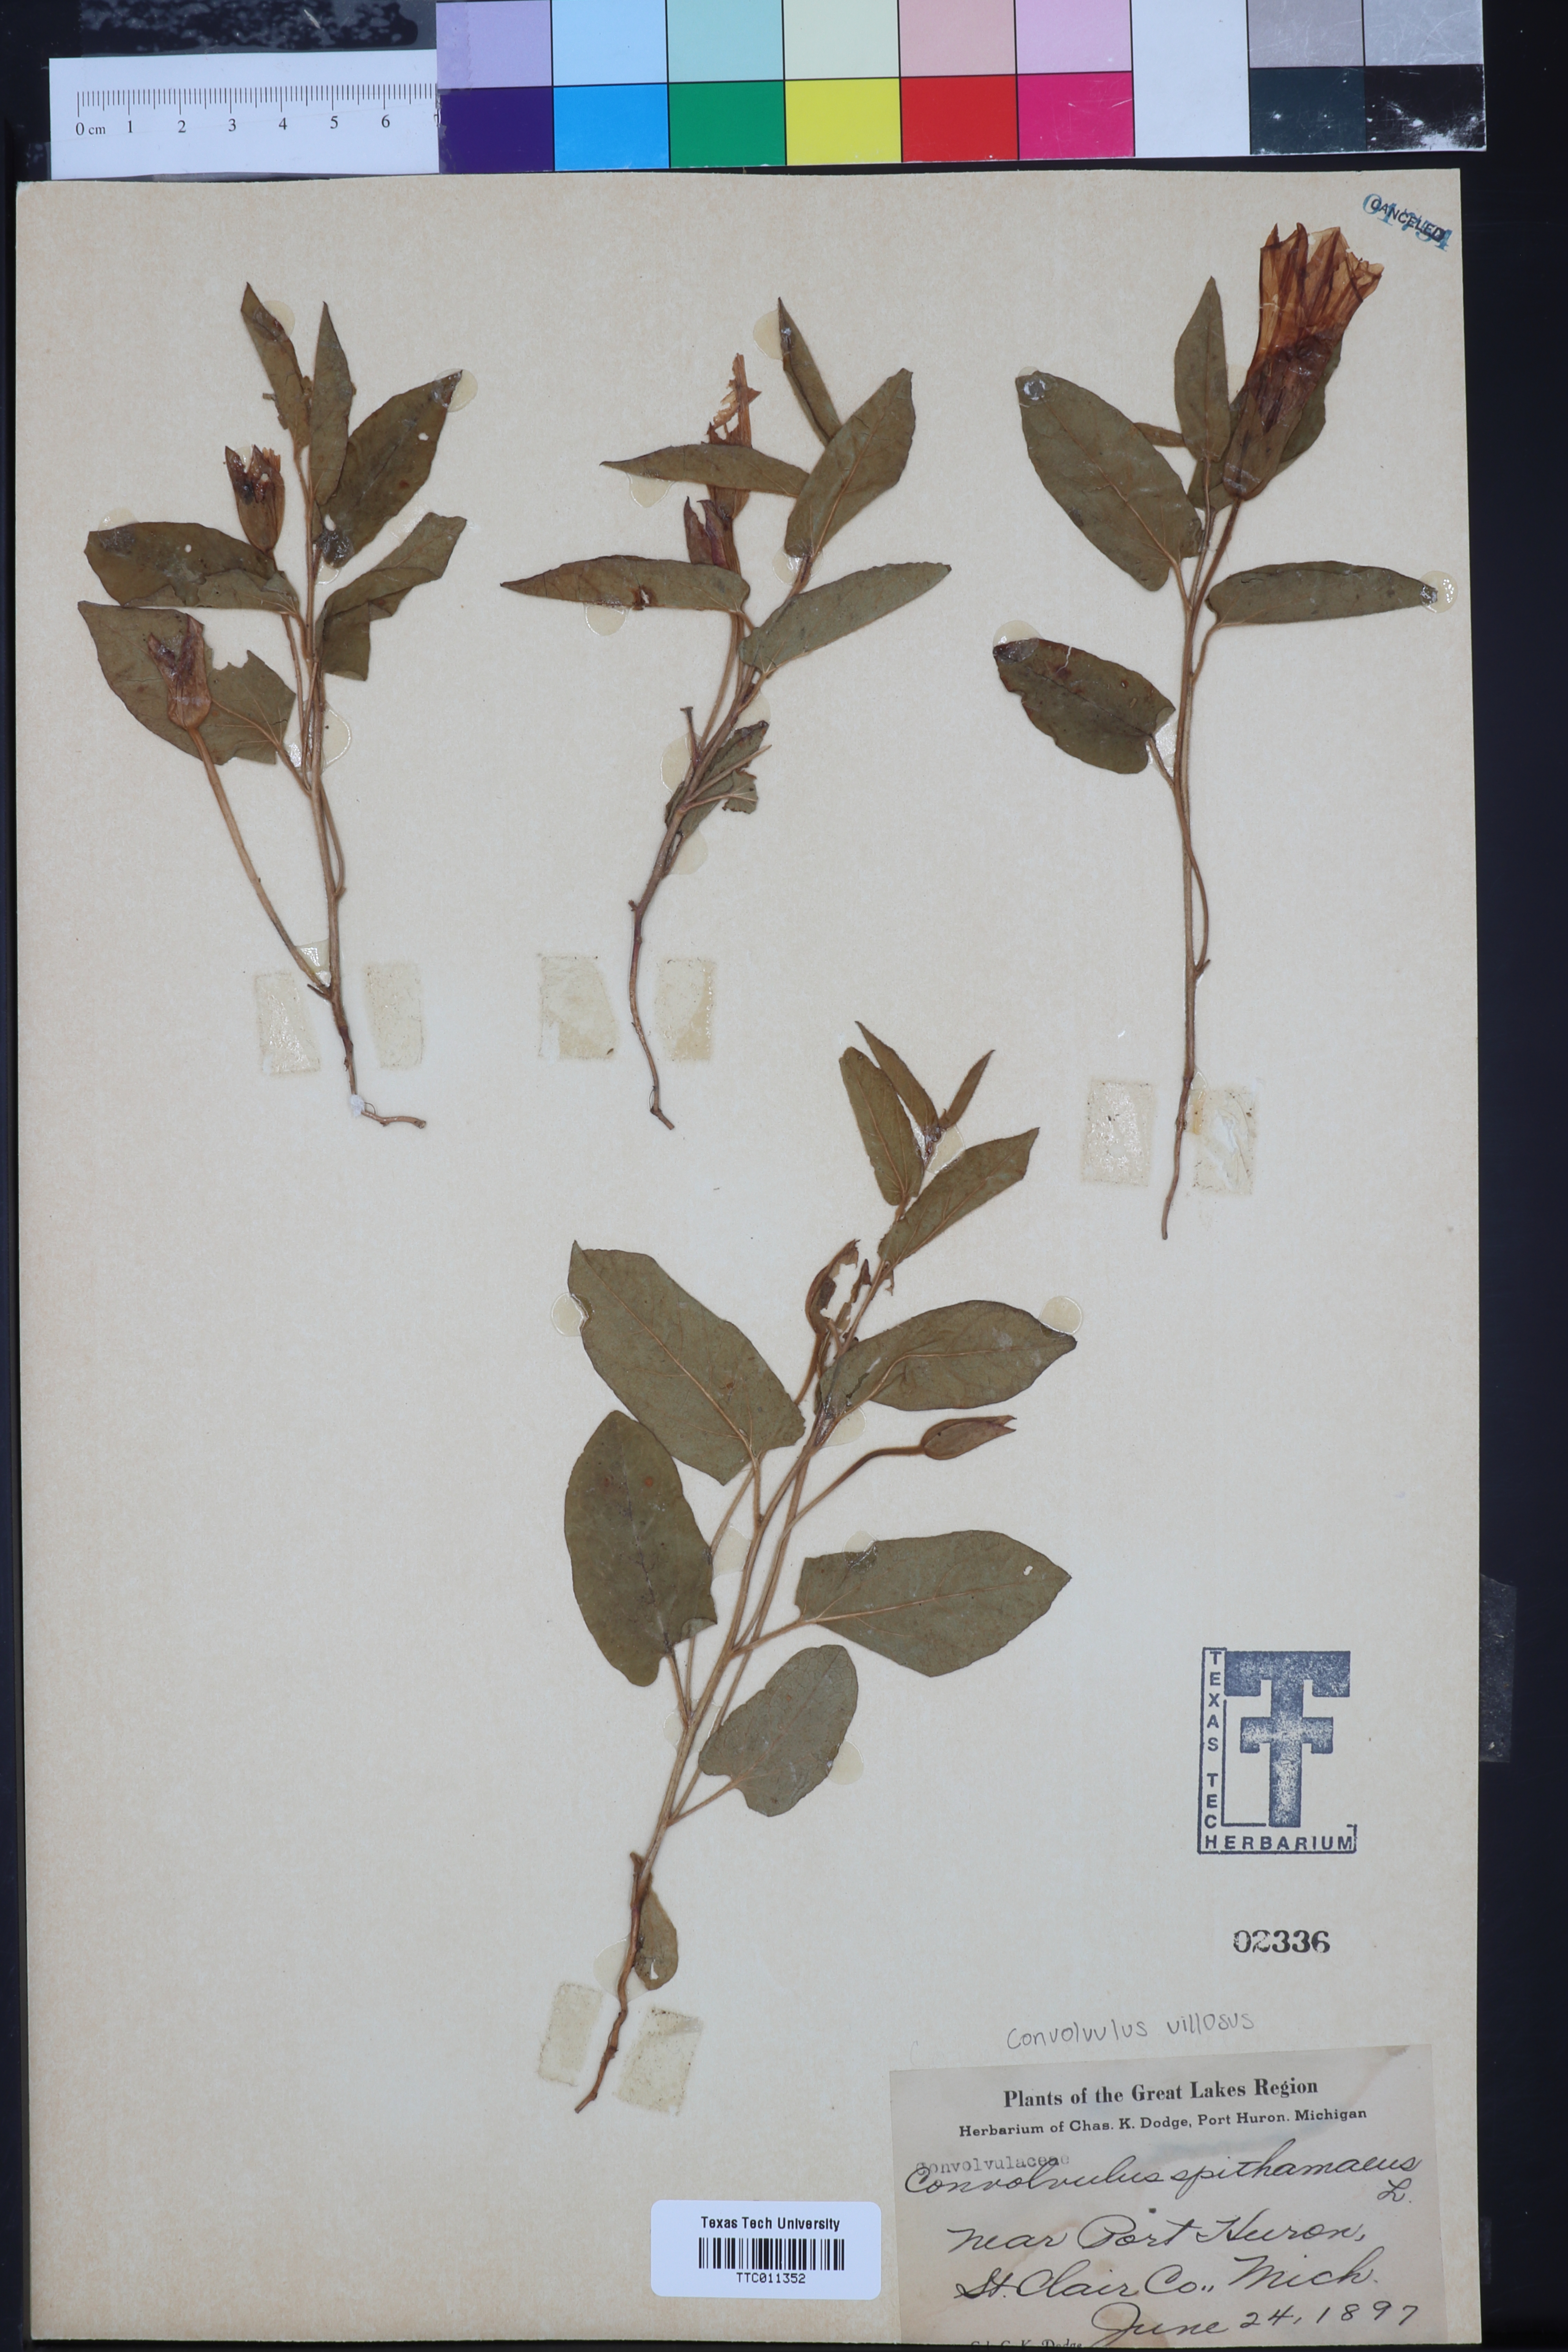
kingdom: Plantae
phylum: Tracheophyta
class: Magnoliopsida
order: Solanales
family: Convolvulaceae
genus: Calystegia
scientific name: Calystegia spithamaea
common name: Dwarf bindweed
